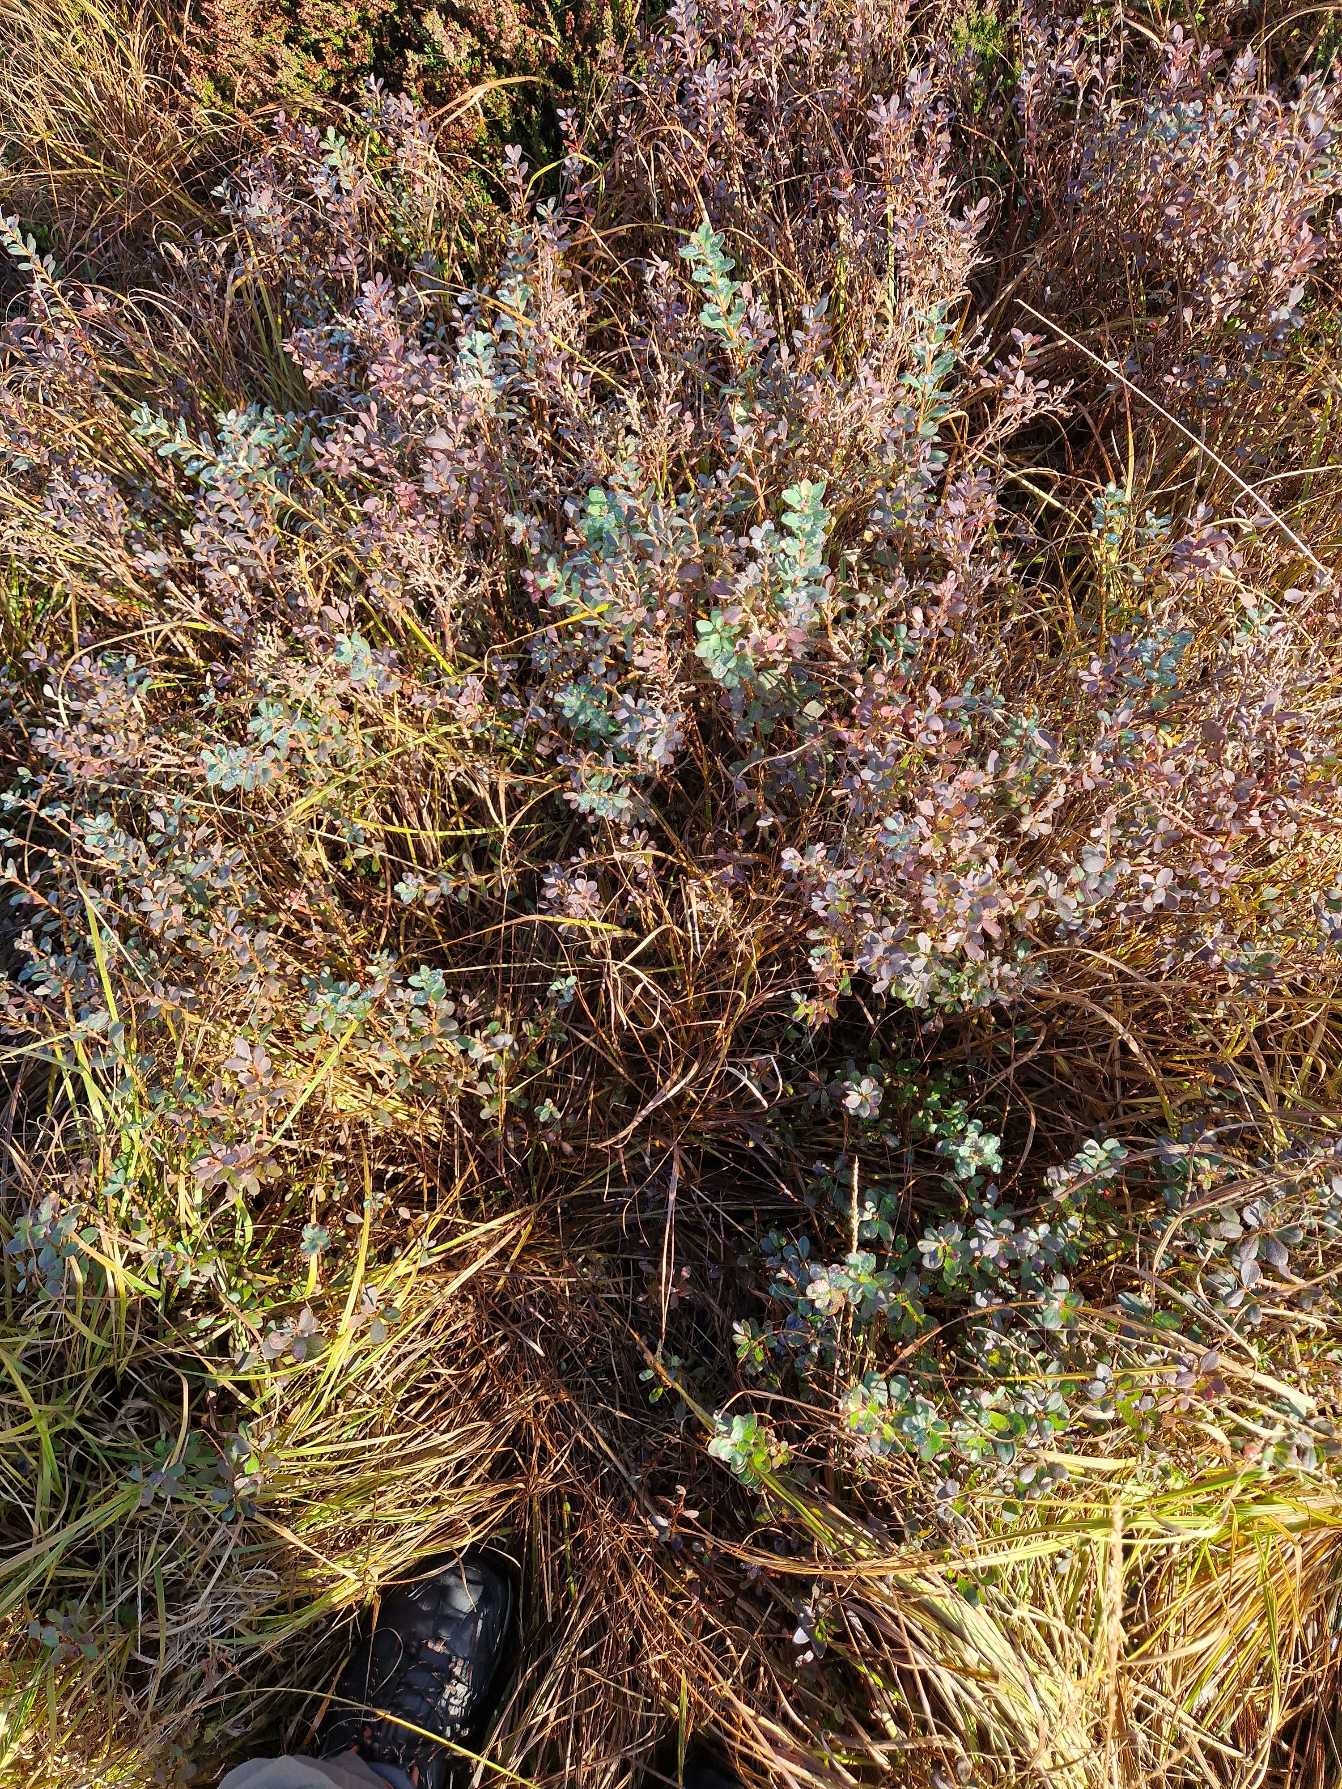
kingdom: Plantae
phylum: Tracheophyta
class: Magnoliopsida
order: Ericales
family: Ericaceae
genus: Vaccinium
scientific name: Vaccinium uliginosum
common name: Mose-bølle
